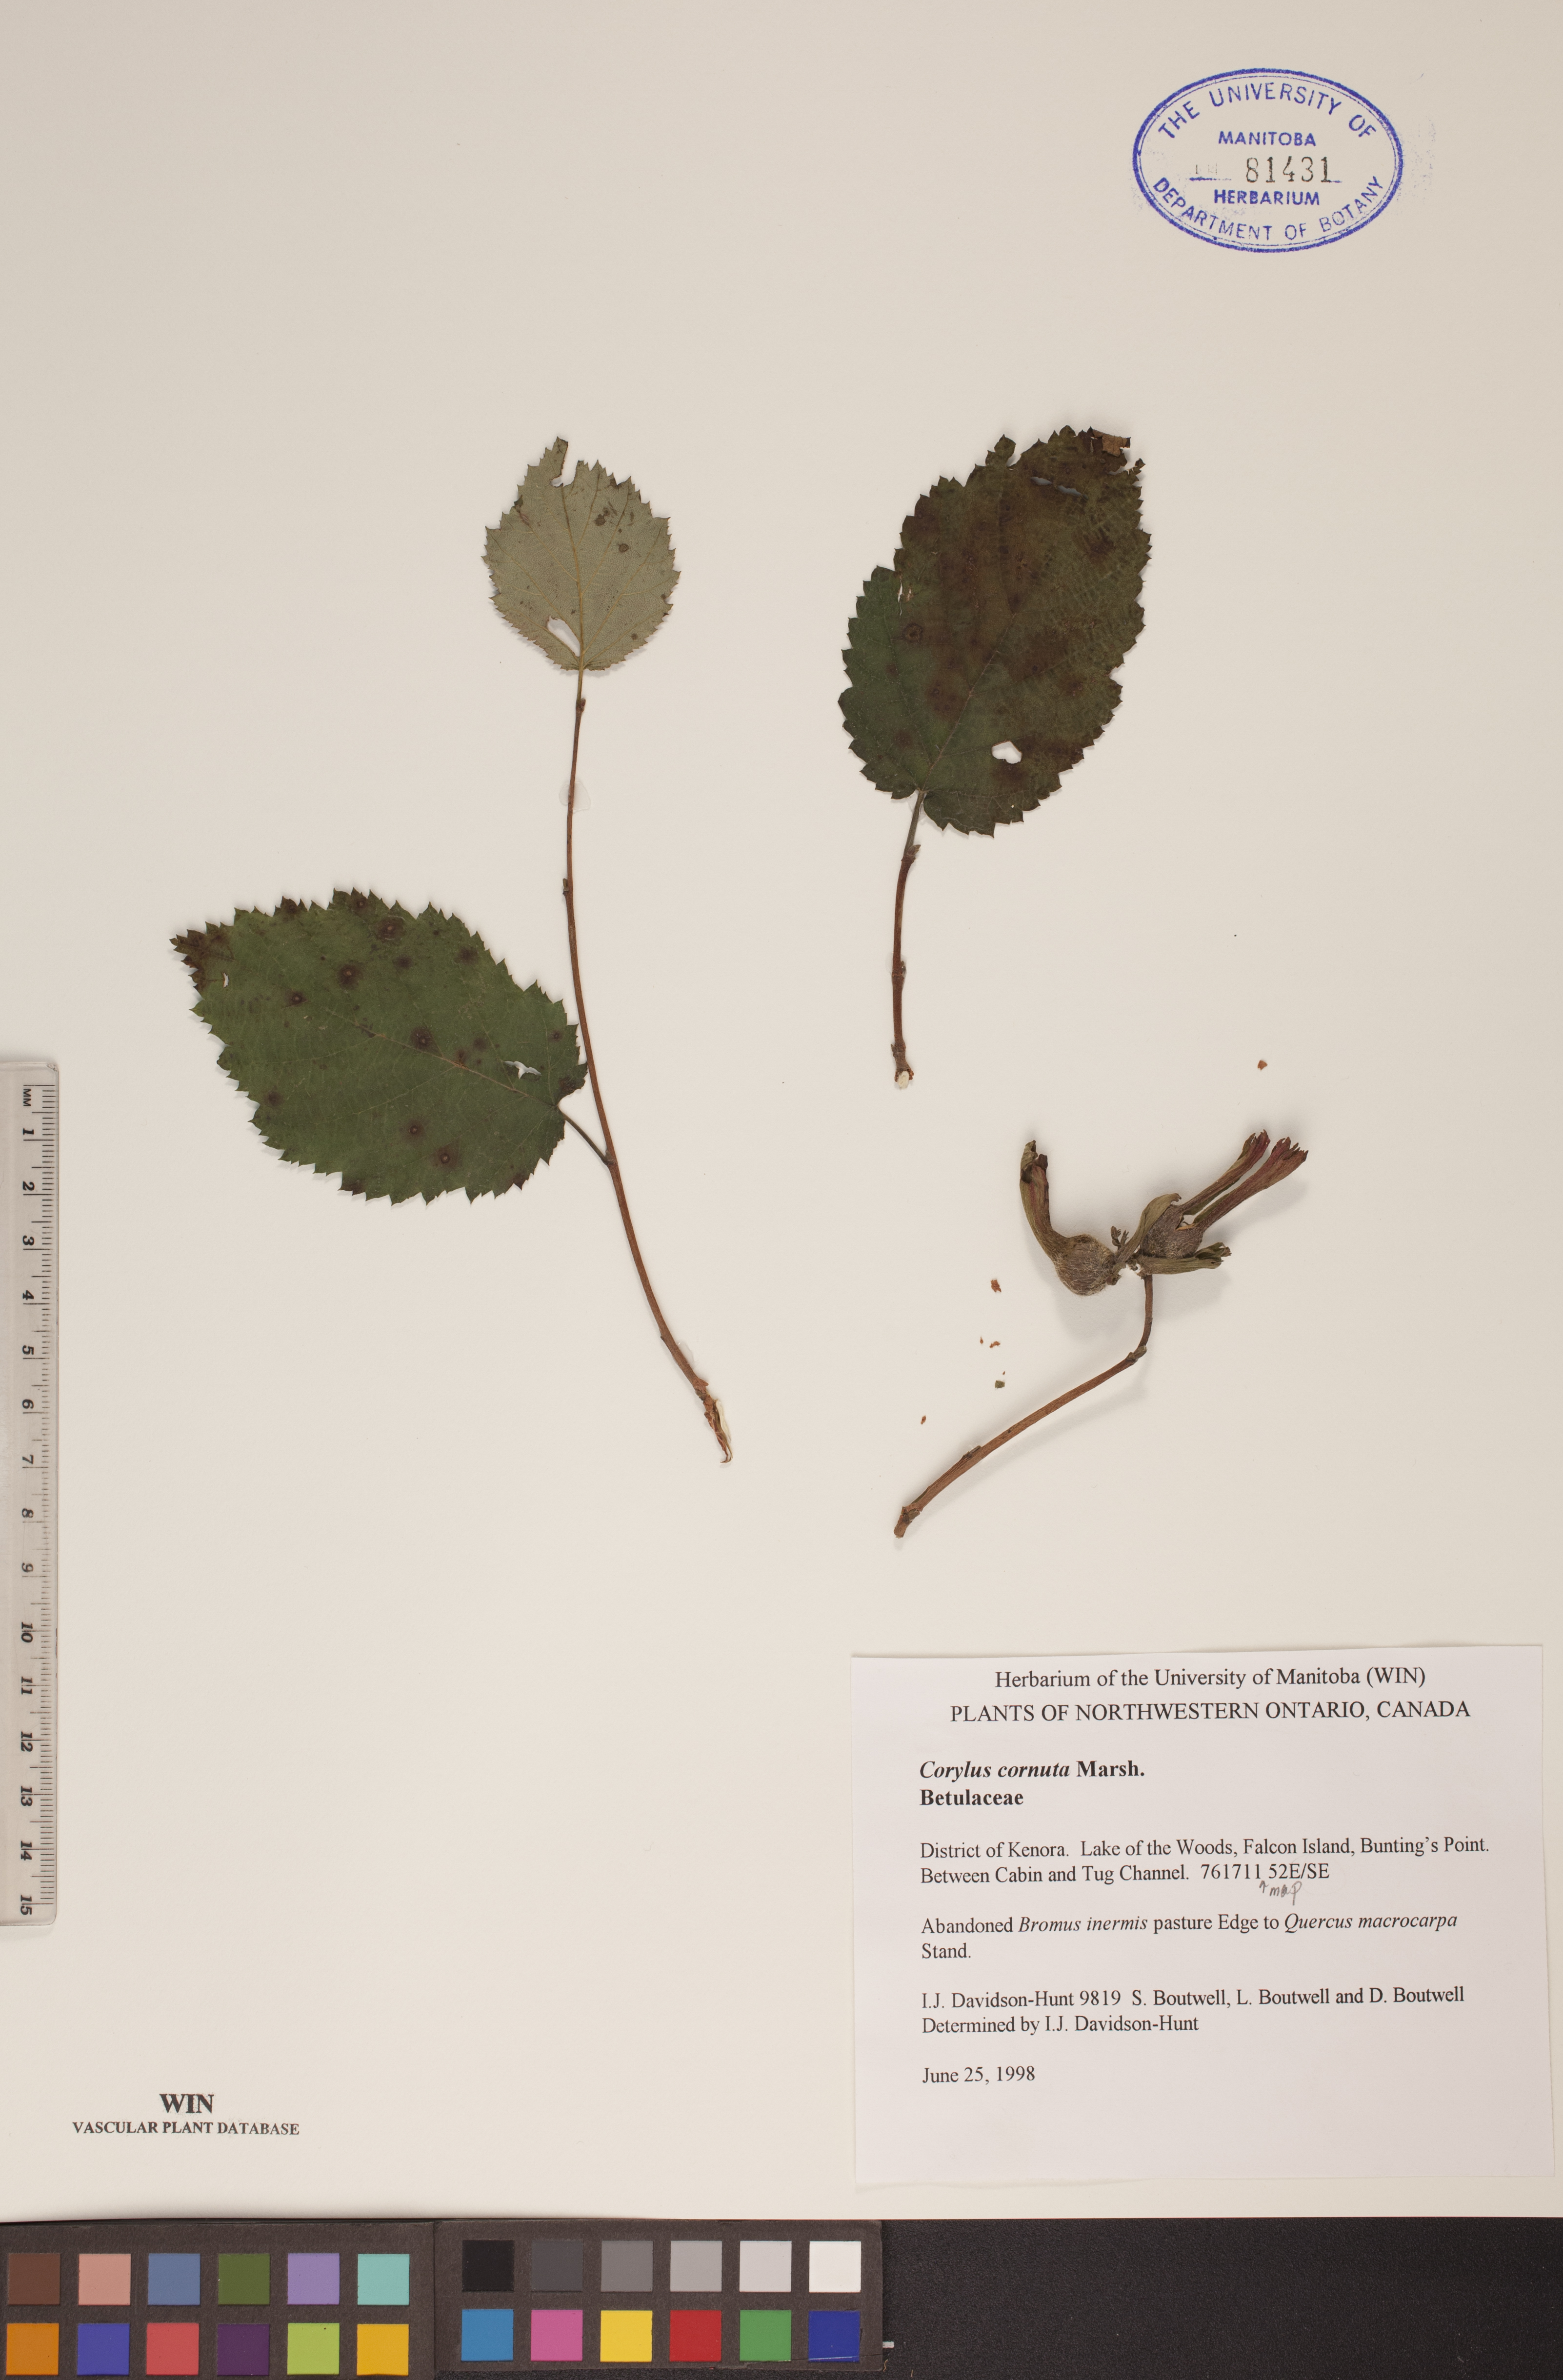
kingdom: Plantae
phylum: Tracheophyta
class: Magnoliopsida
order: Fagales
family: Betulaceae
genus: Corylus
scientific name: Corylus cornuta
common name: Beaked hazel
